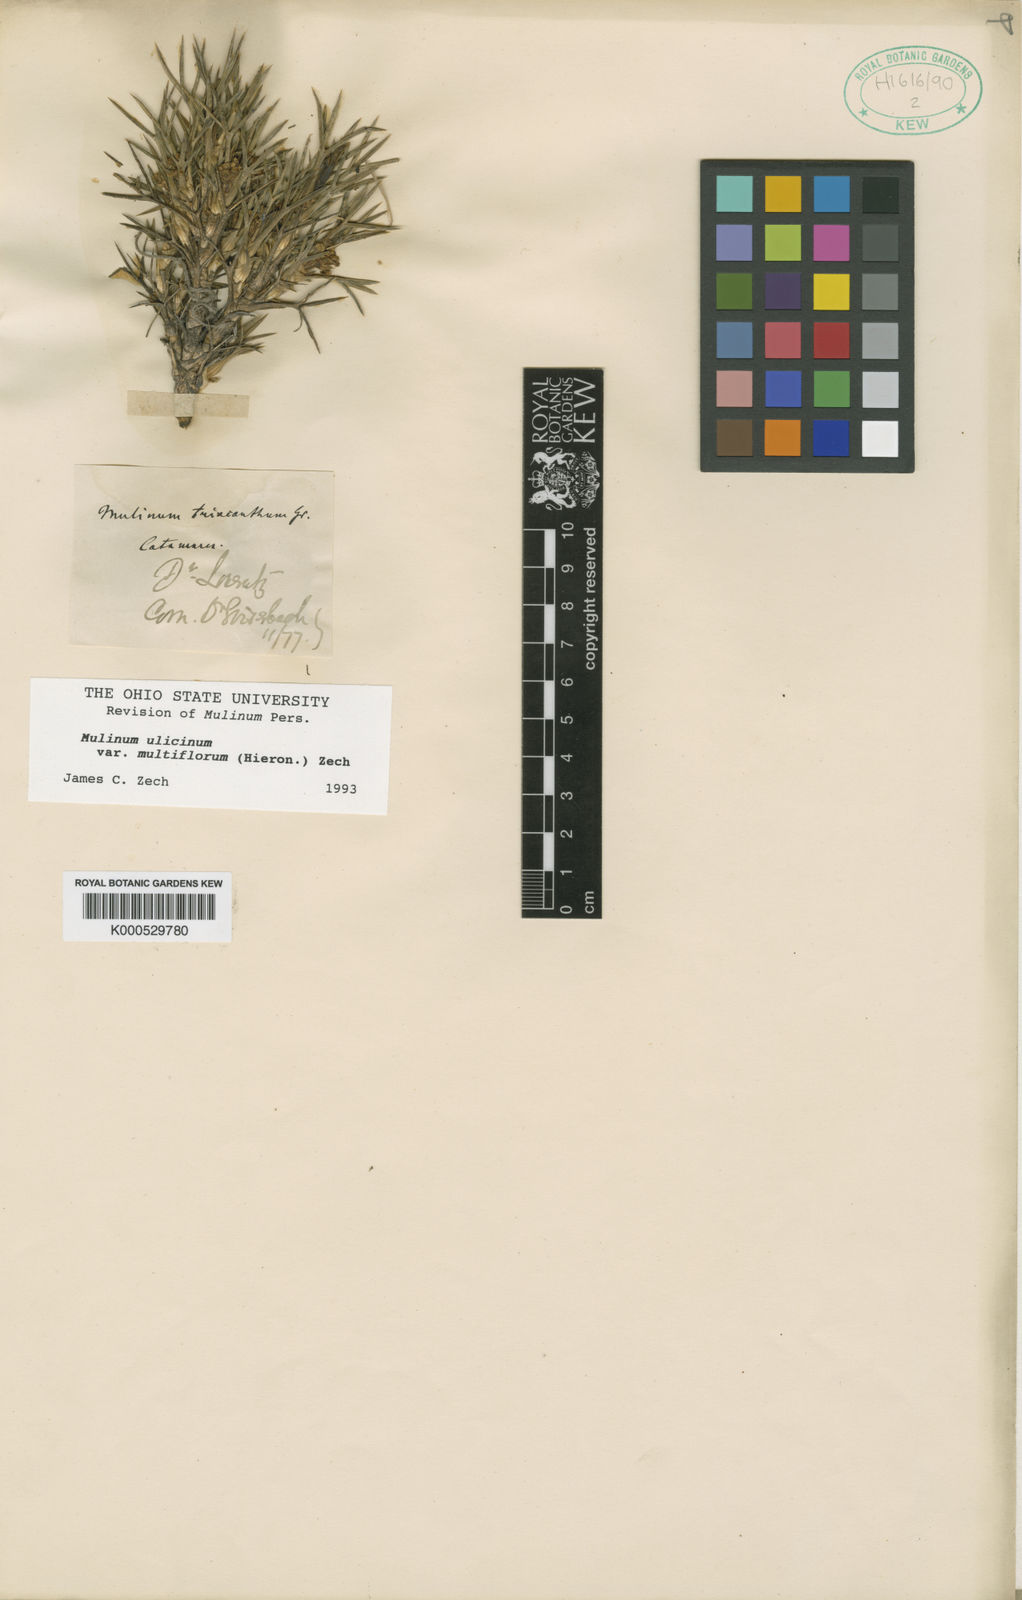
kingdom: Plantae
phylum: Tracheophyta
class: Magnoliopsida
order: Apiales
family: Apiaceae
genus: Azorella
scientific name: Azorella ulicina
